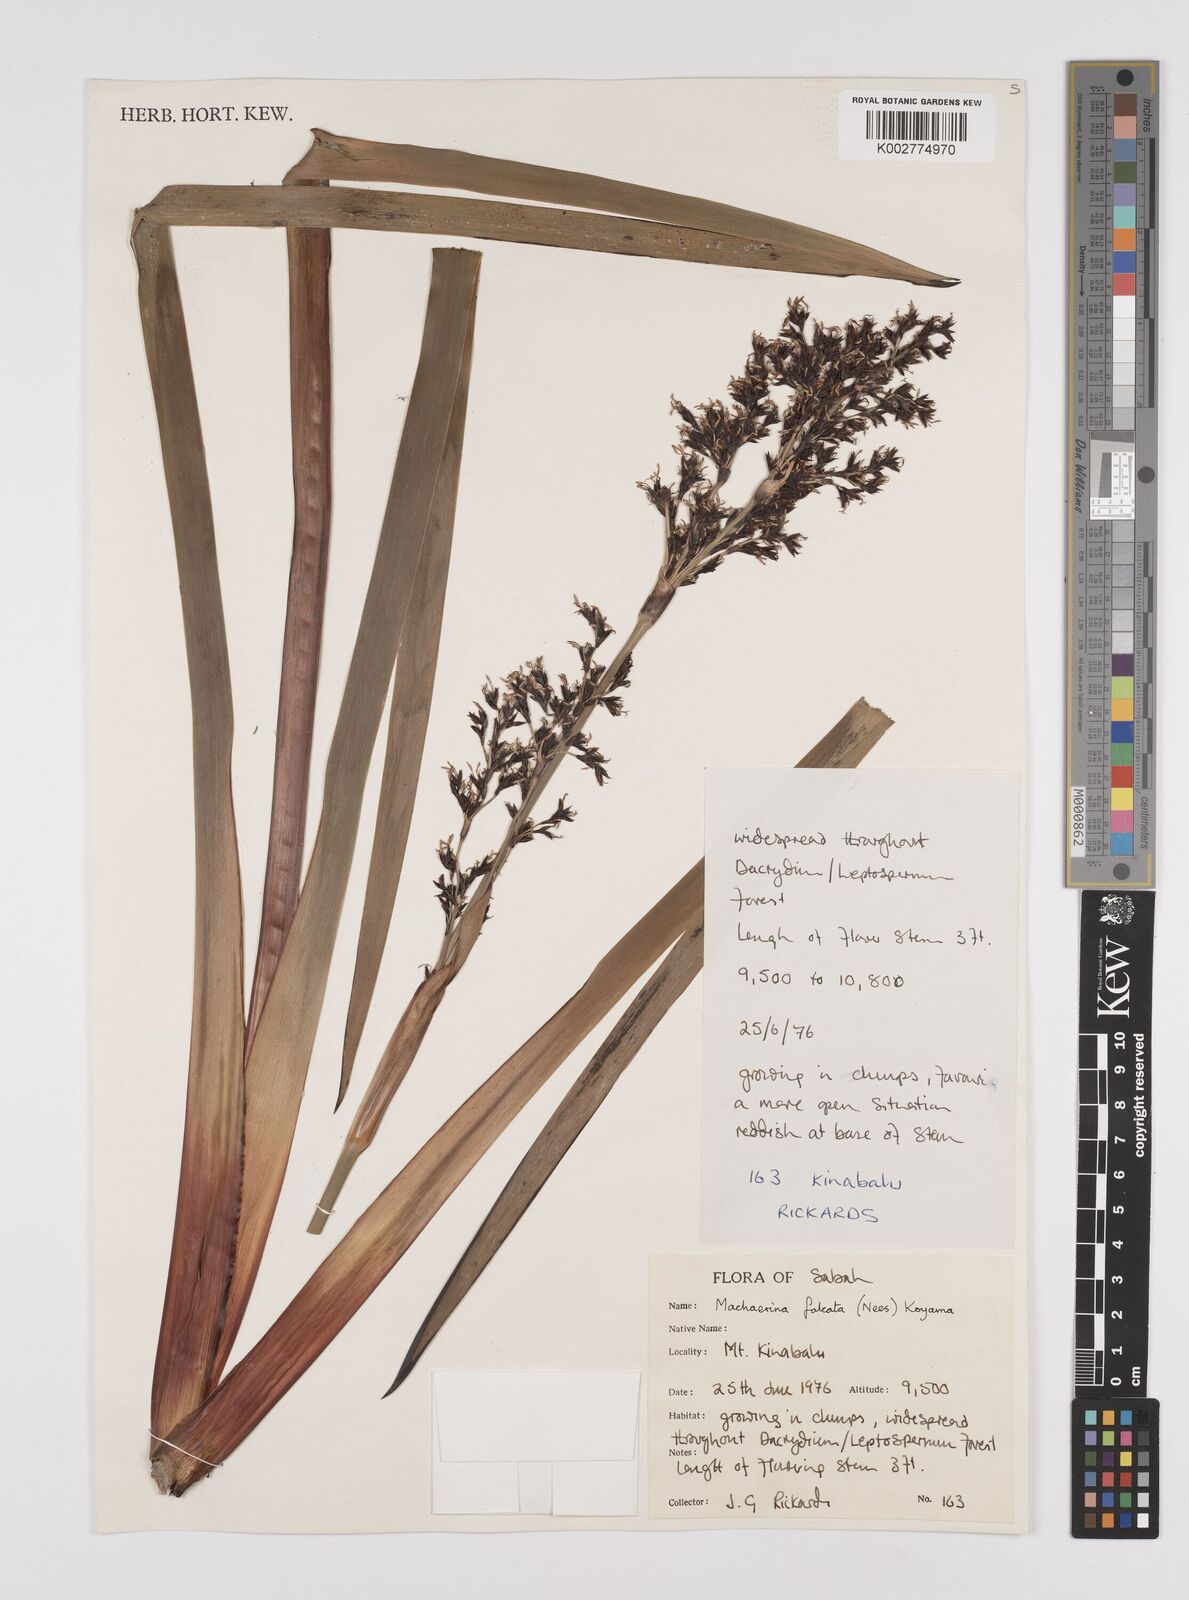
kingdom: Plantae
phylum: Tracheophyta
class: Liliopsida
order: Poales
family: Cyperaceae
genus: Machaerina
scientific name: Machaerina falcata
